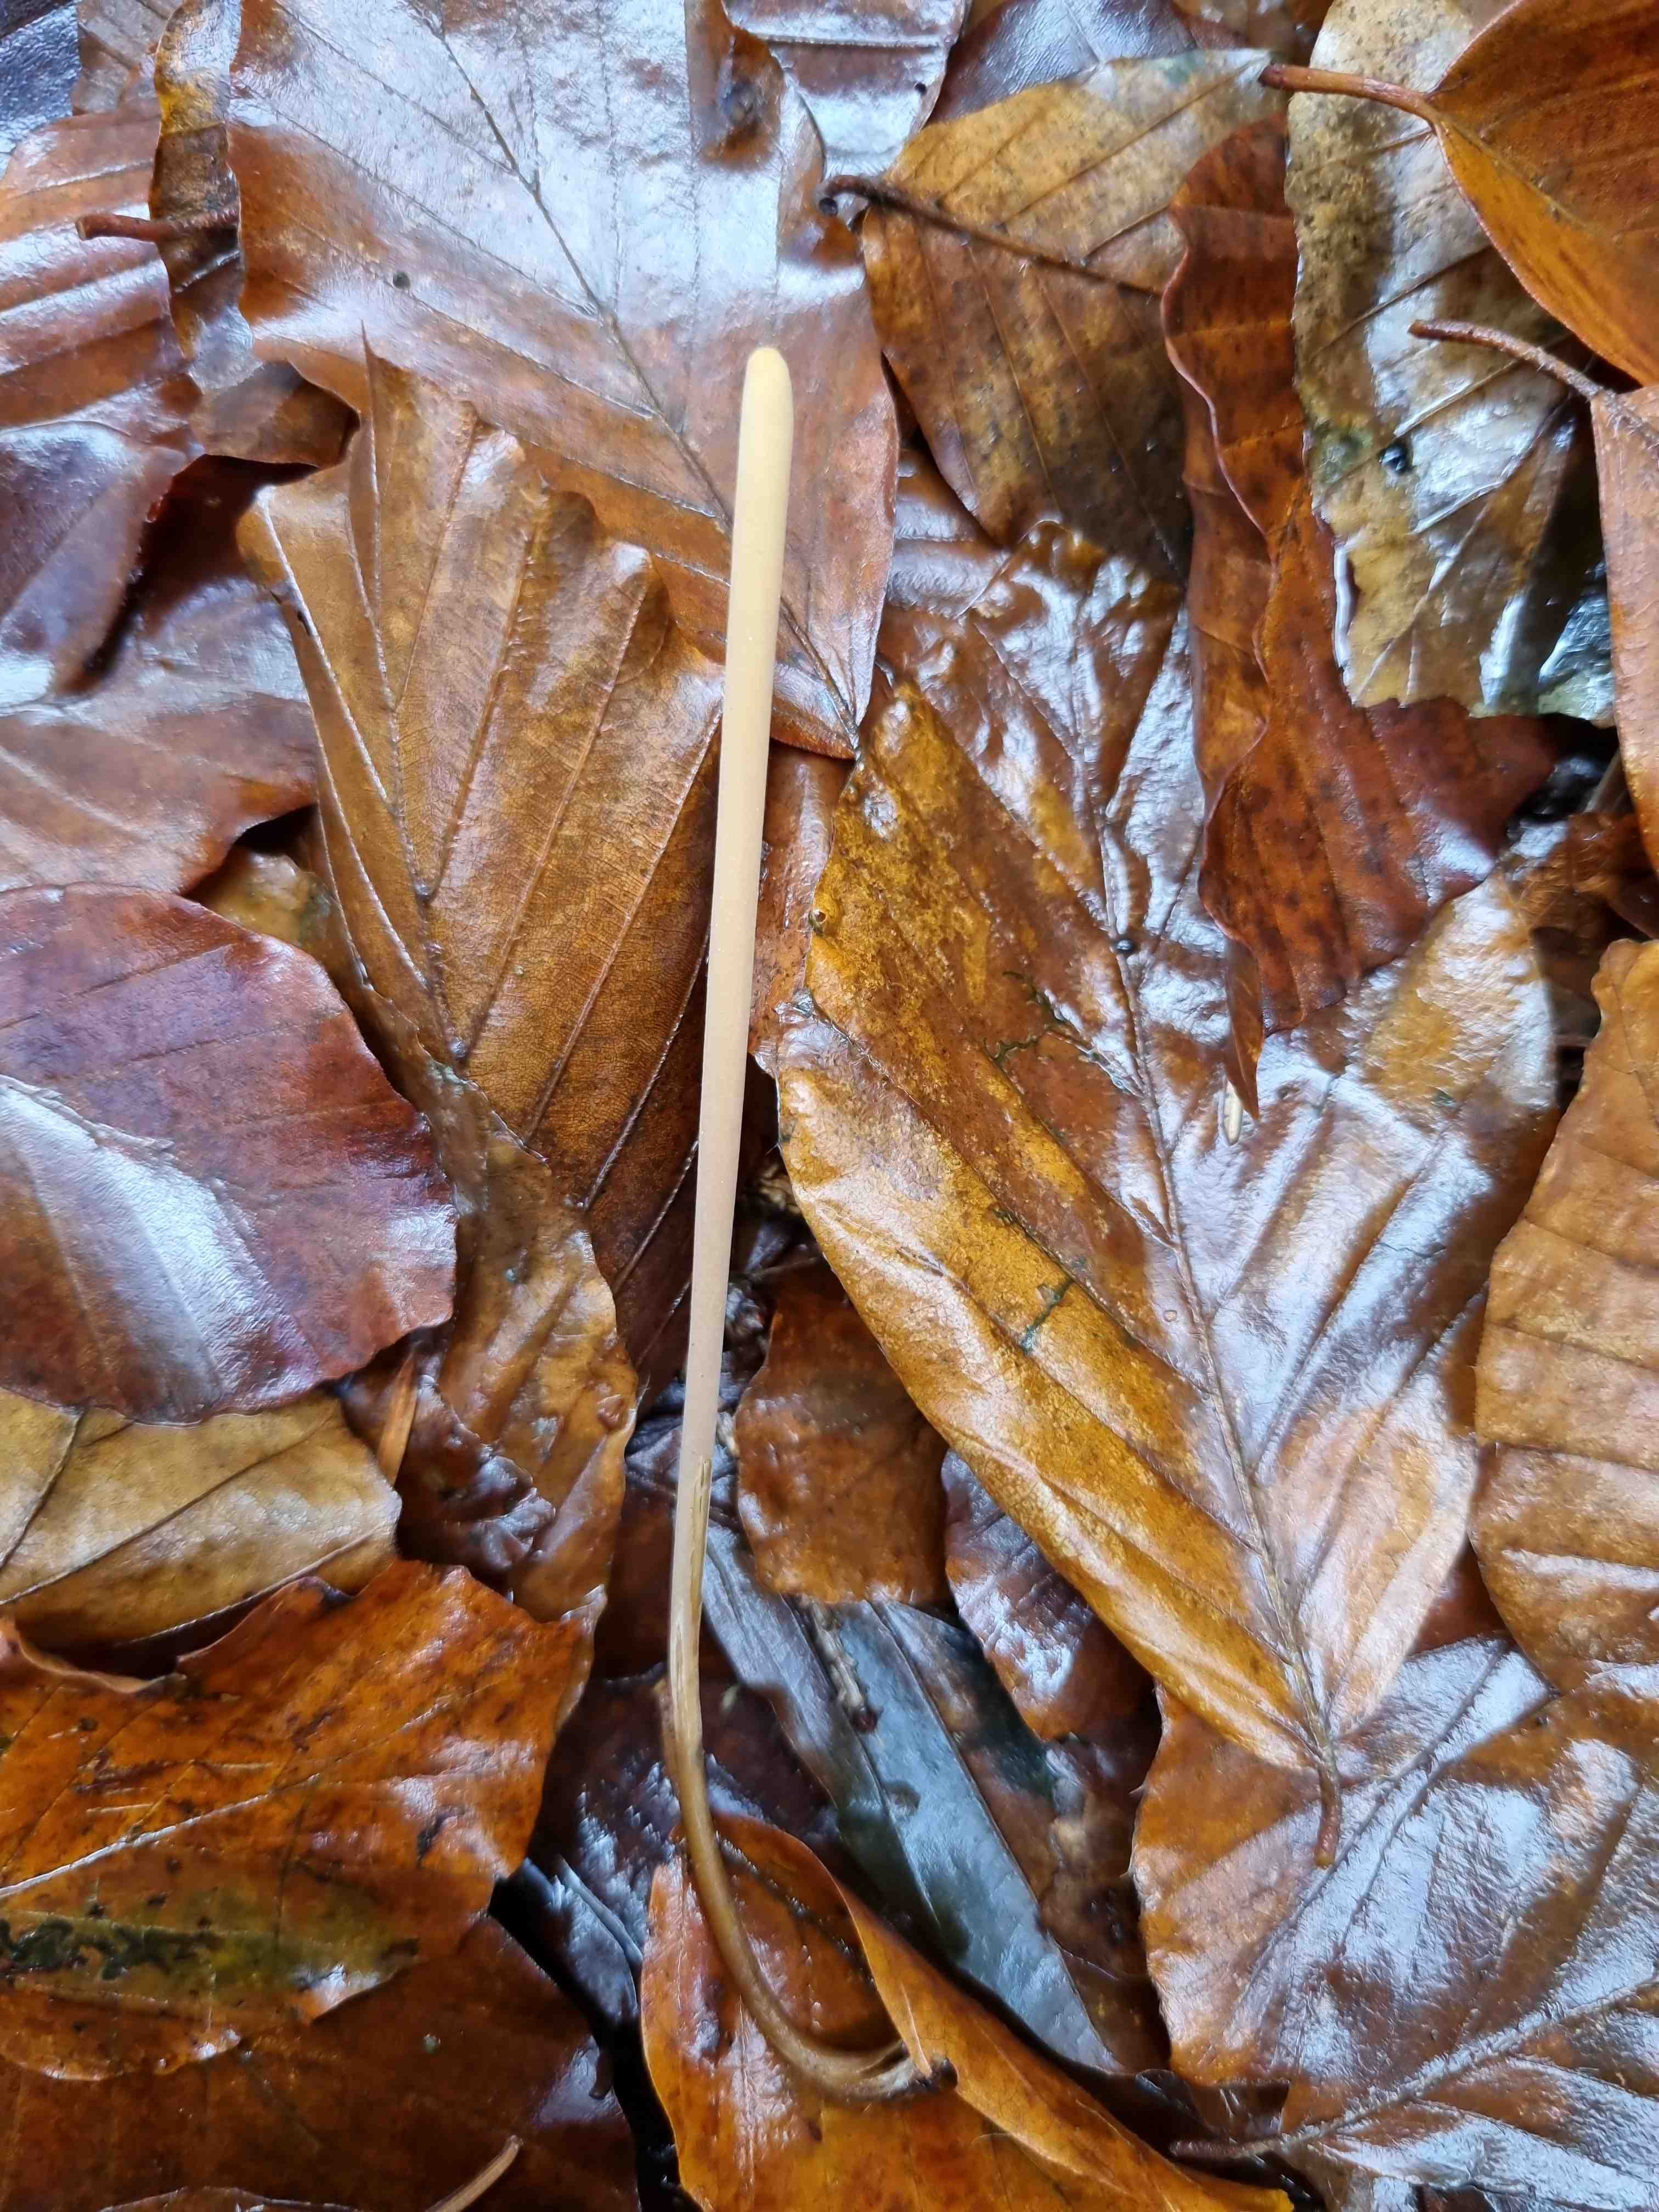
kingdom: Fungi
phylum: Basidiomycota
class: Agaricomycetes
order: Agaricales
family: Typhulaceae
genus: Typhula
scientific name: Typhula fistulosa
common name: pibet rørkølle
